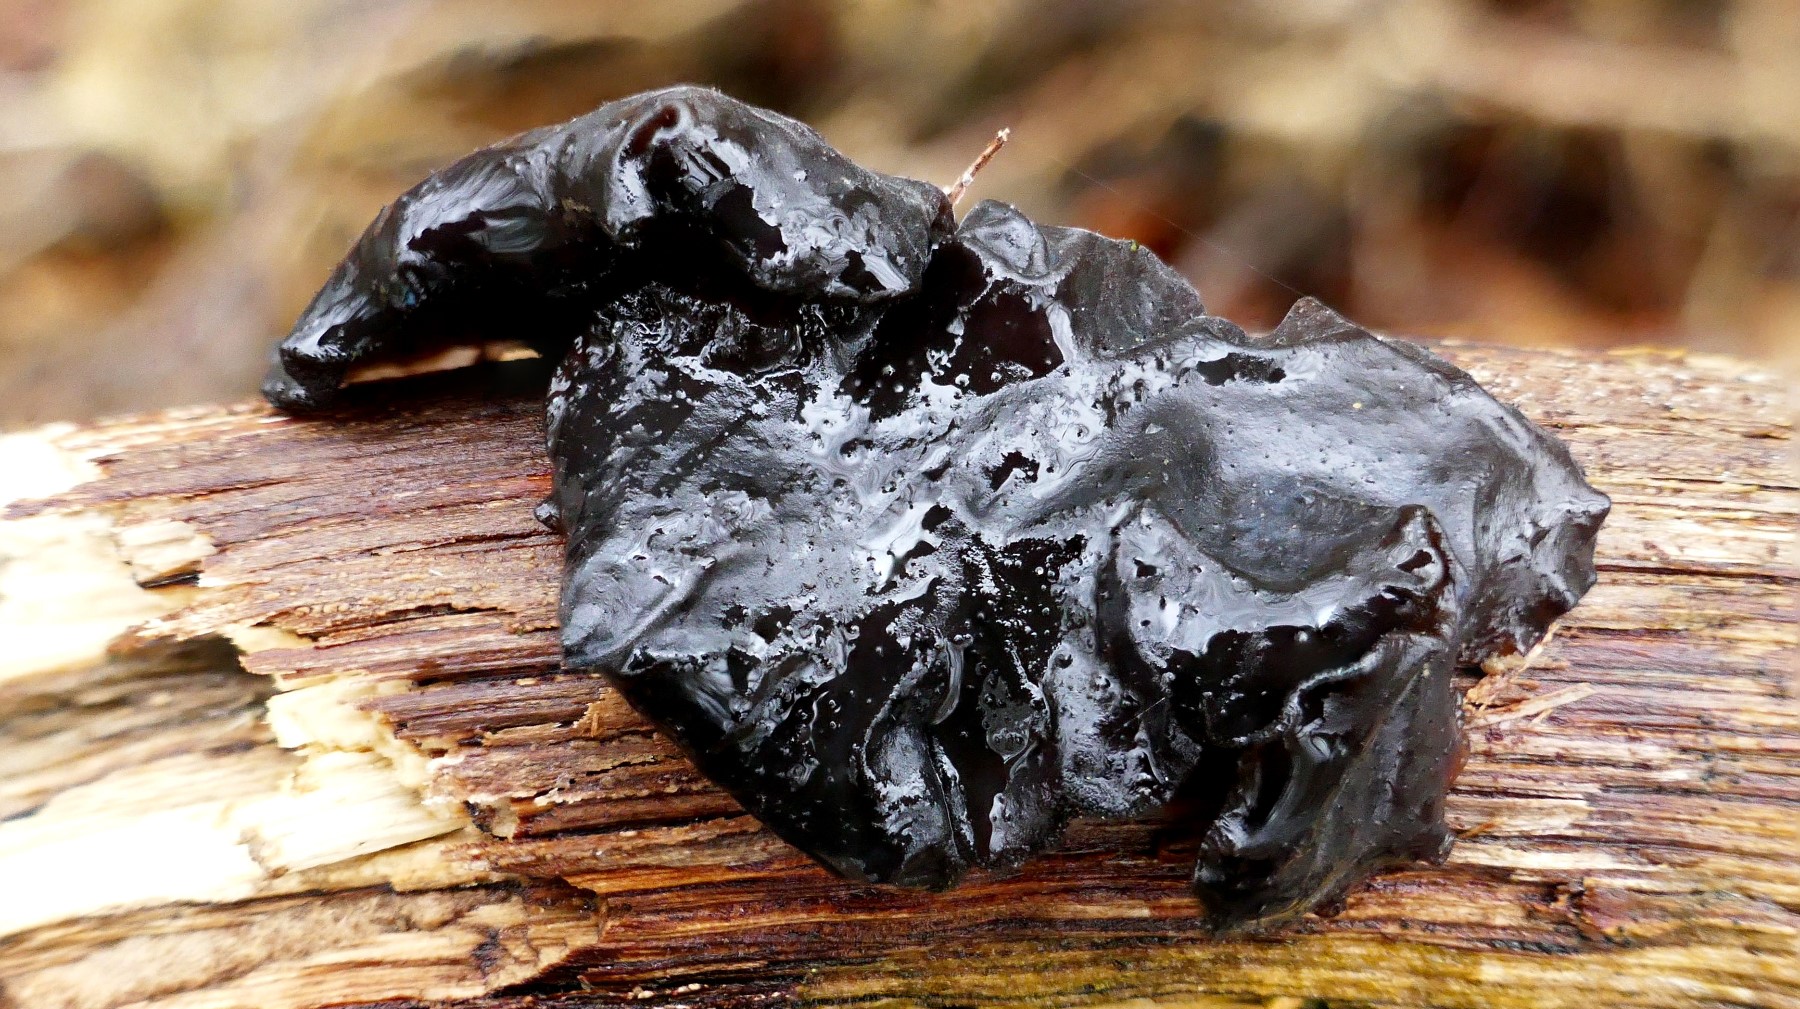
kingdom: Fungi
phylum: Basidiomycota
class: Agaricomycetes
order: Auriculariales
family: Auriculariaceae
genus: Exidia
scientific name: Exidia glandulosa
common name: ege-bævretop
